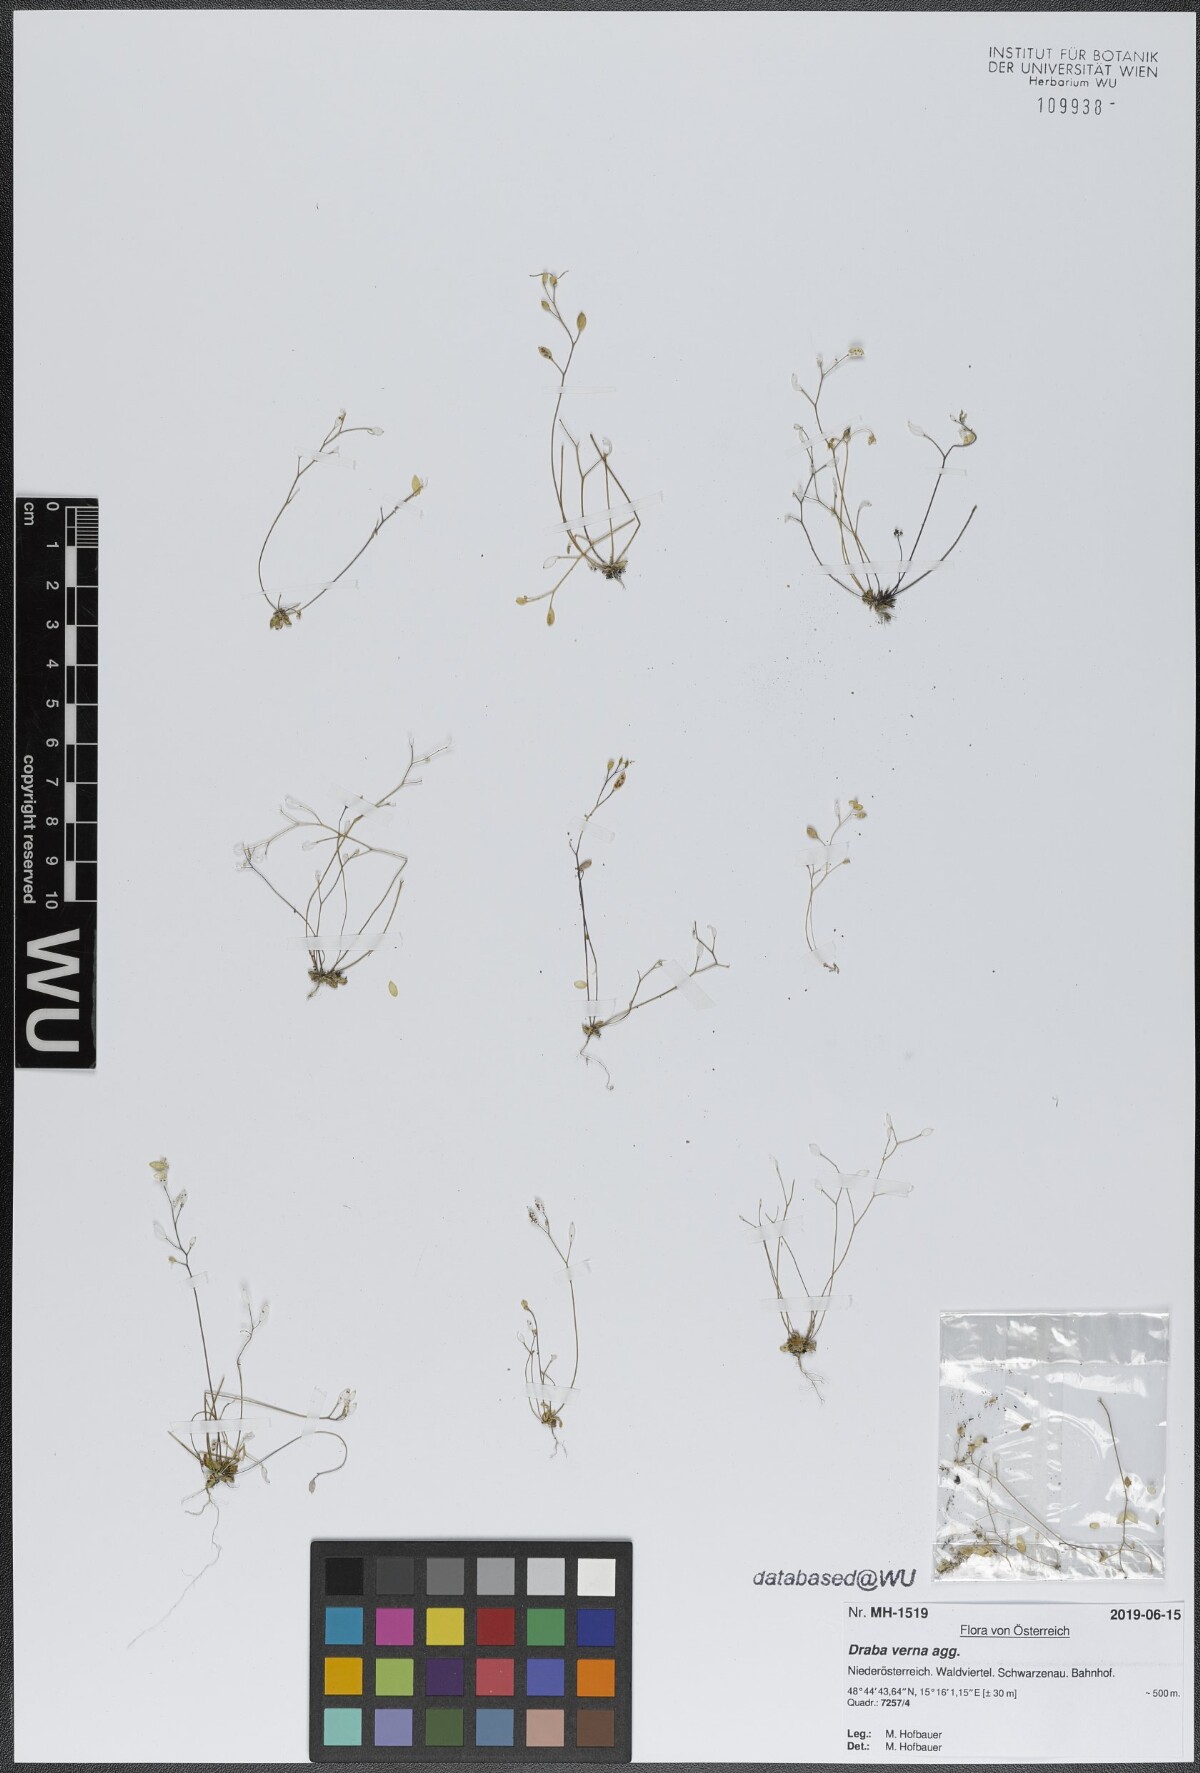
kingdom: Plantae
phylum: Tracheophyta
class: Magnoliopsida
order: Brassicales
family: Brassicaceae
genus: Draba
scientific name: Draba verna
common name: Spring draba
